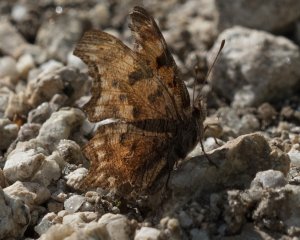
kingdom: Animalia
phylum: Arthropoda
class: Insecta
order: Lepidoptera
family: Nymphalidae
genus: Polygonia
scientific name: Polygonia gracilis
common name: Hoary Comma
